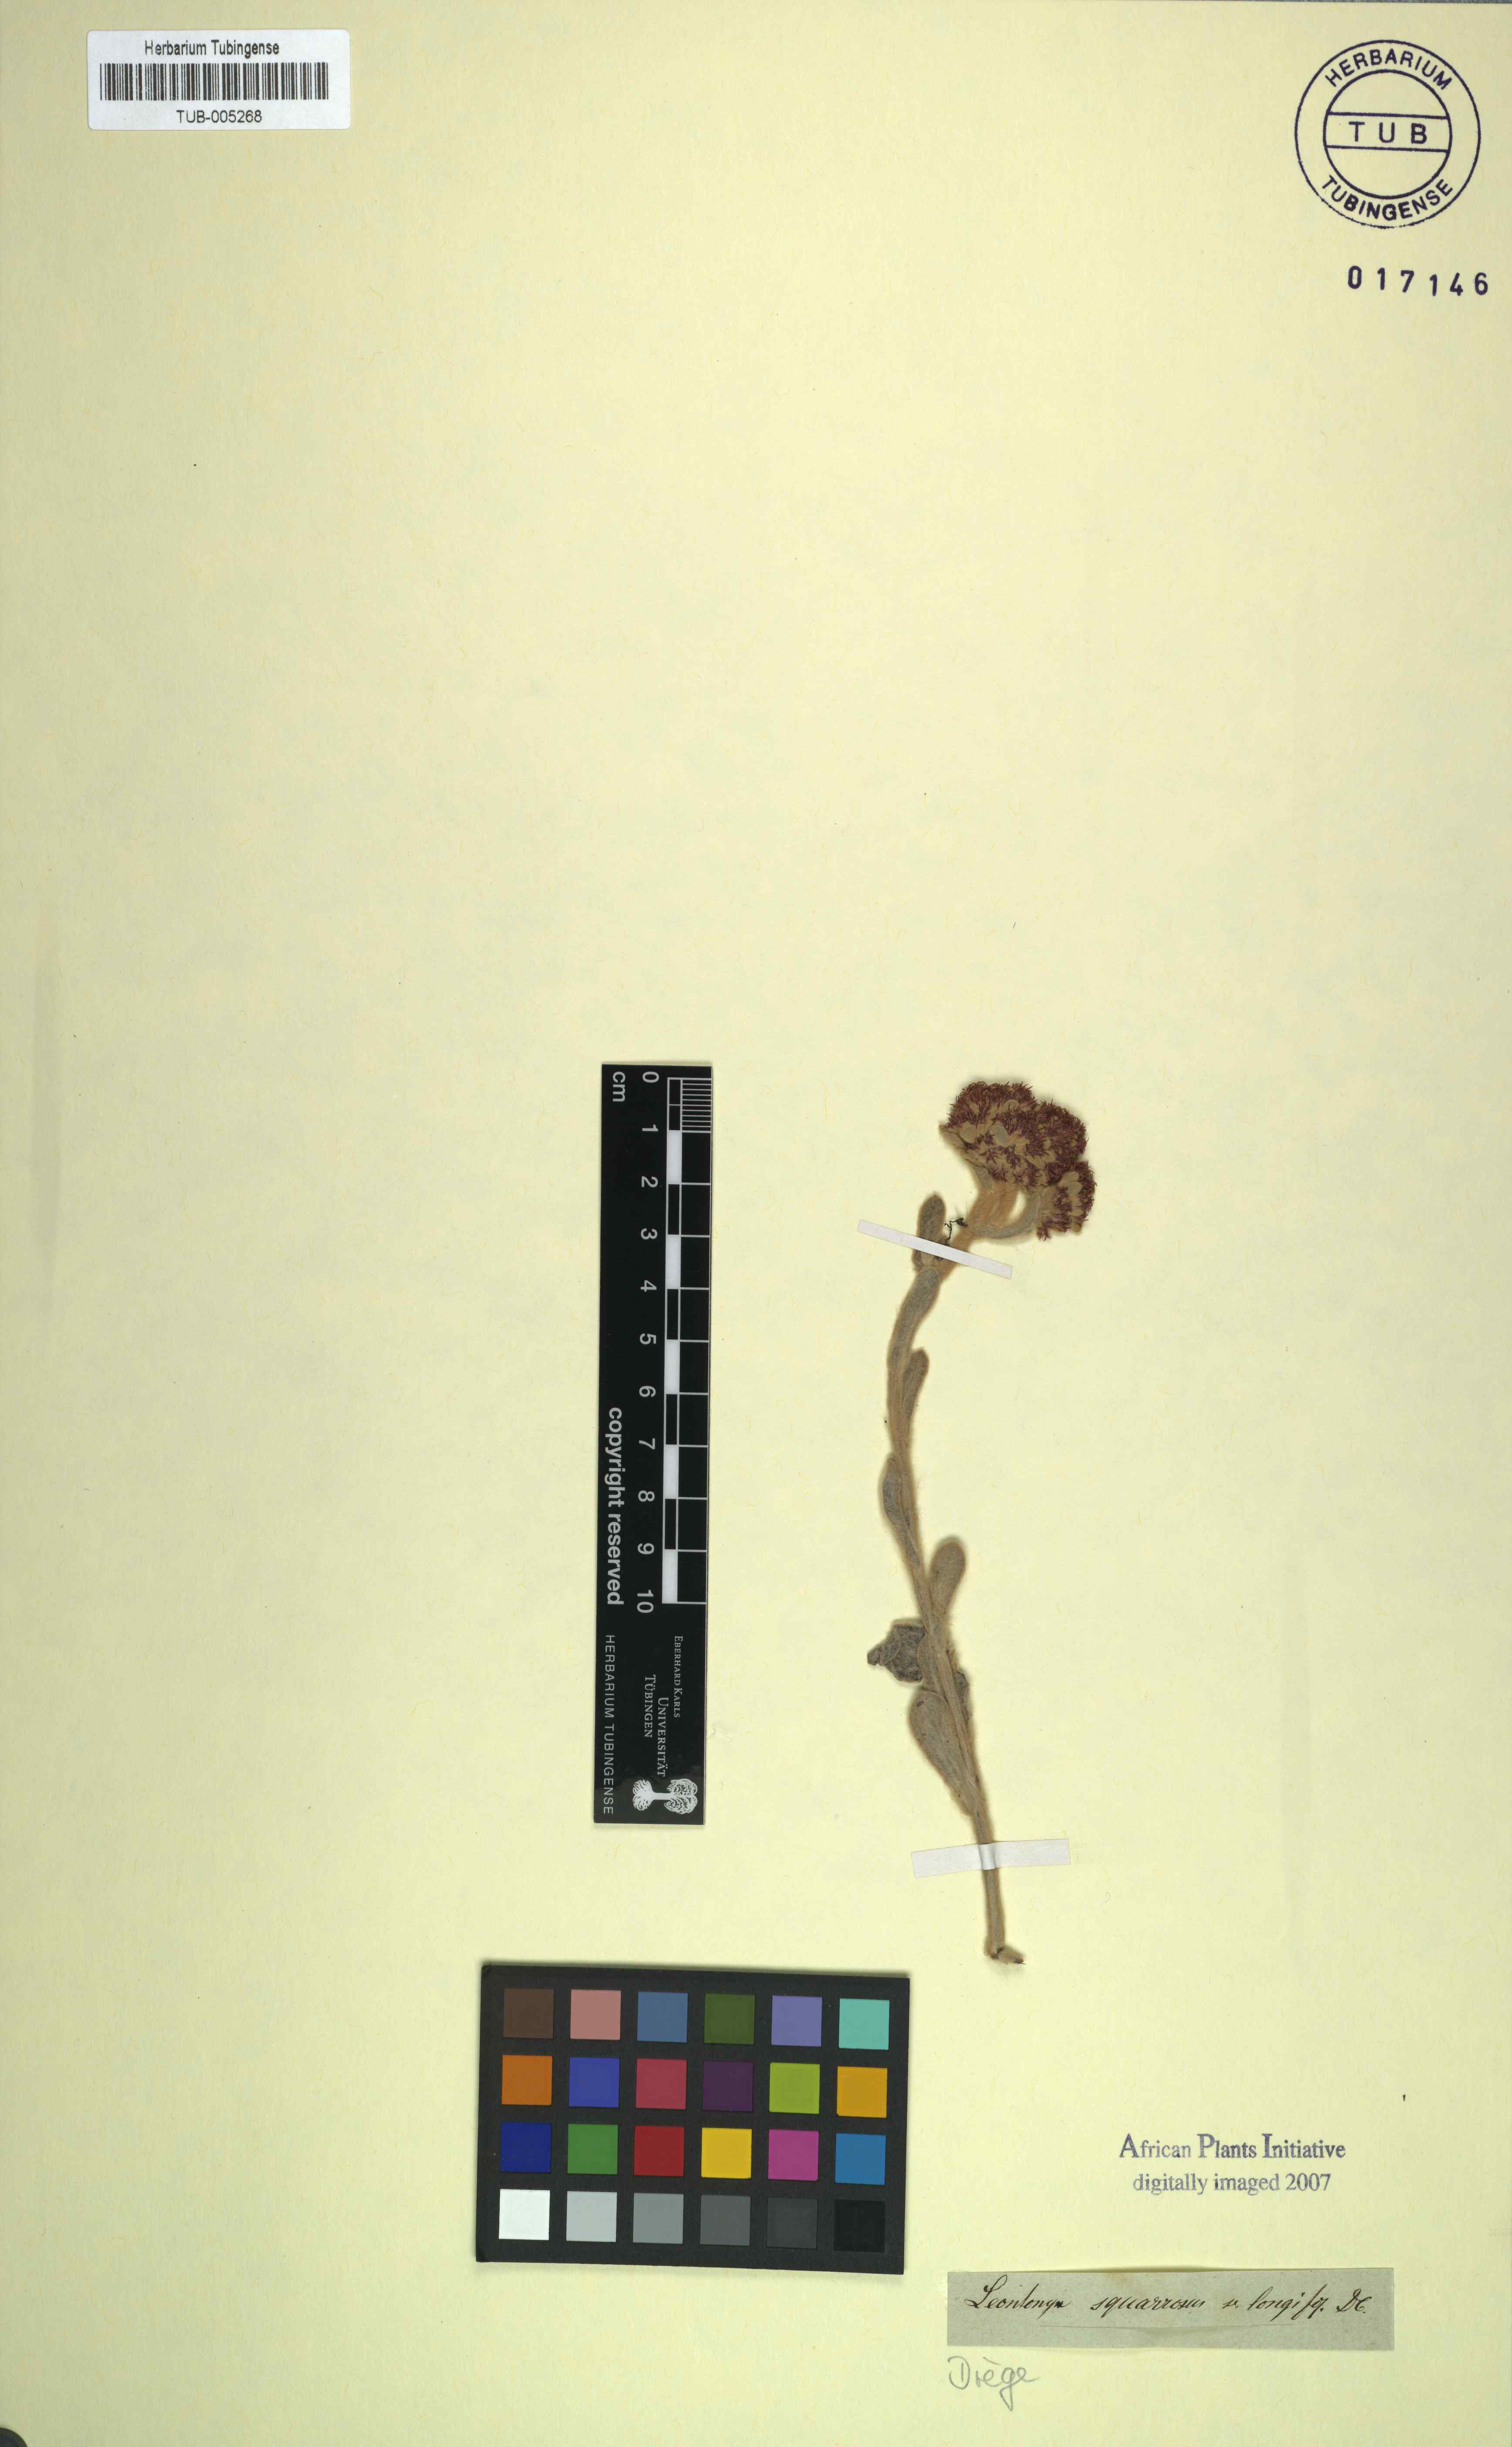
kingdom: Plantae
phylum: Tracheophyta
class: Magnoliopsida
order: Asterales
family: Asteraceae
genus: Helichrysum
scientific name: Helichrysum spiralepis
